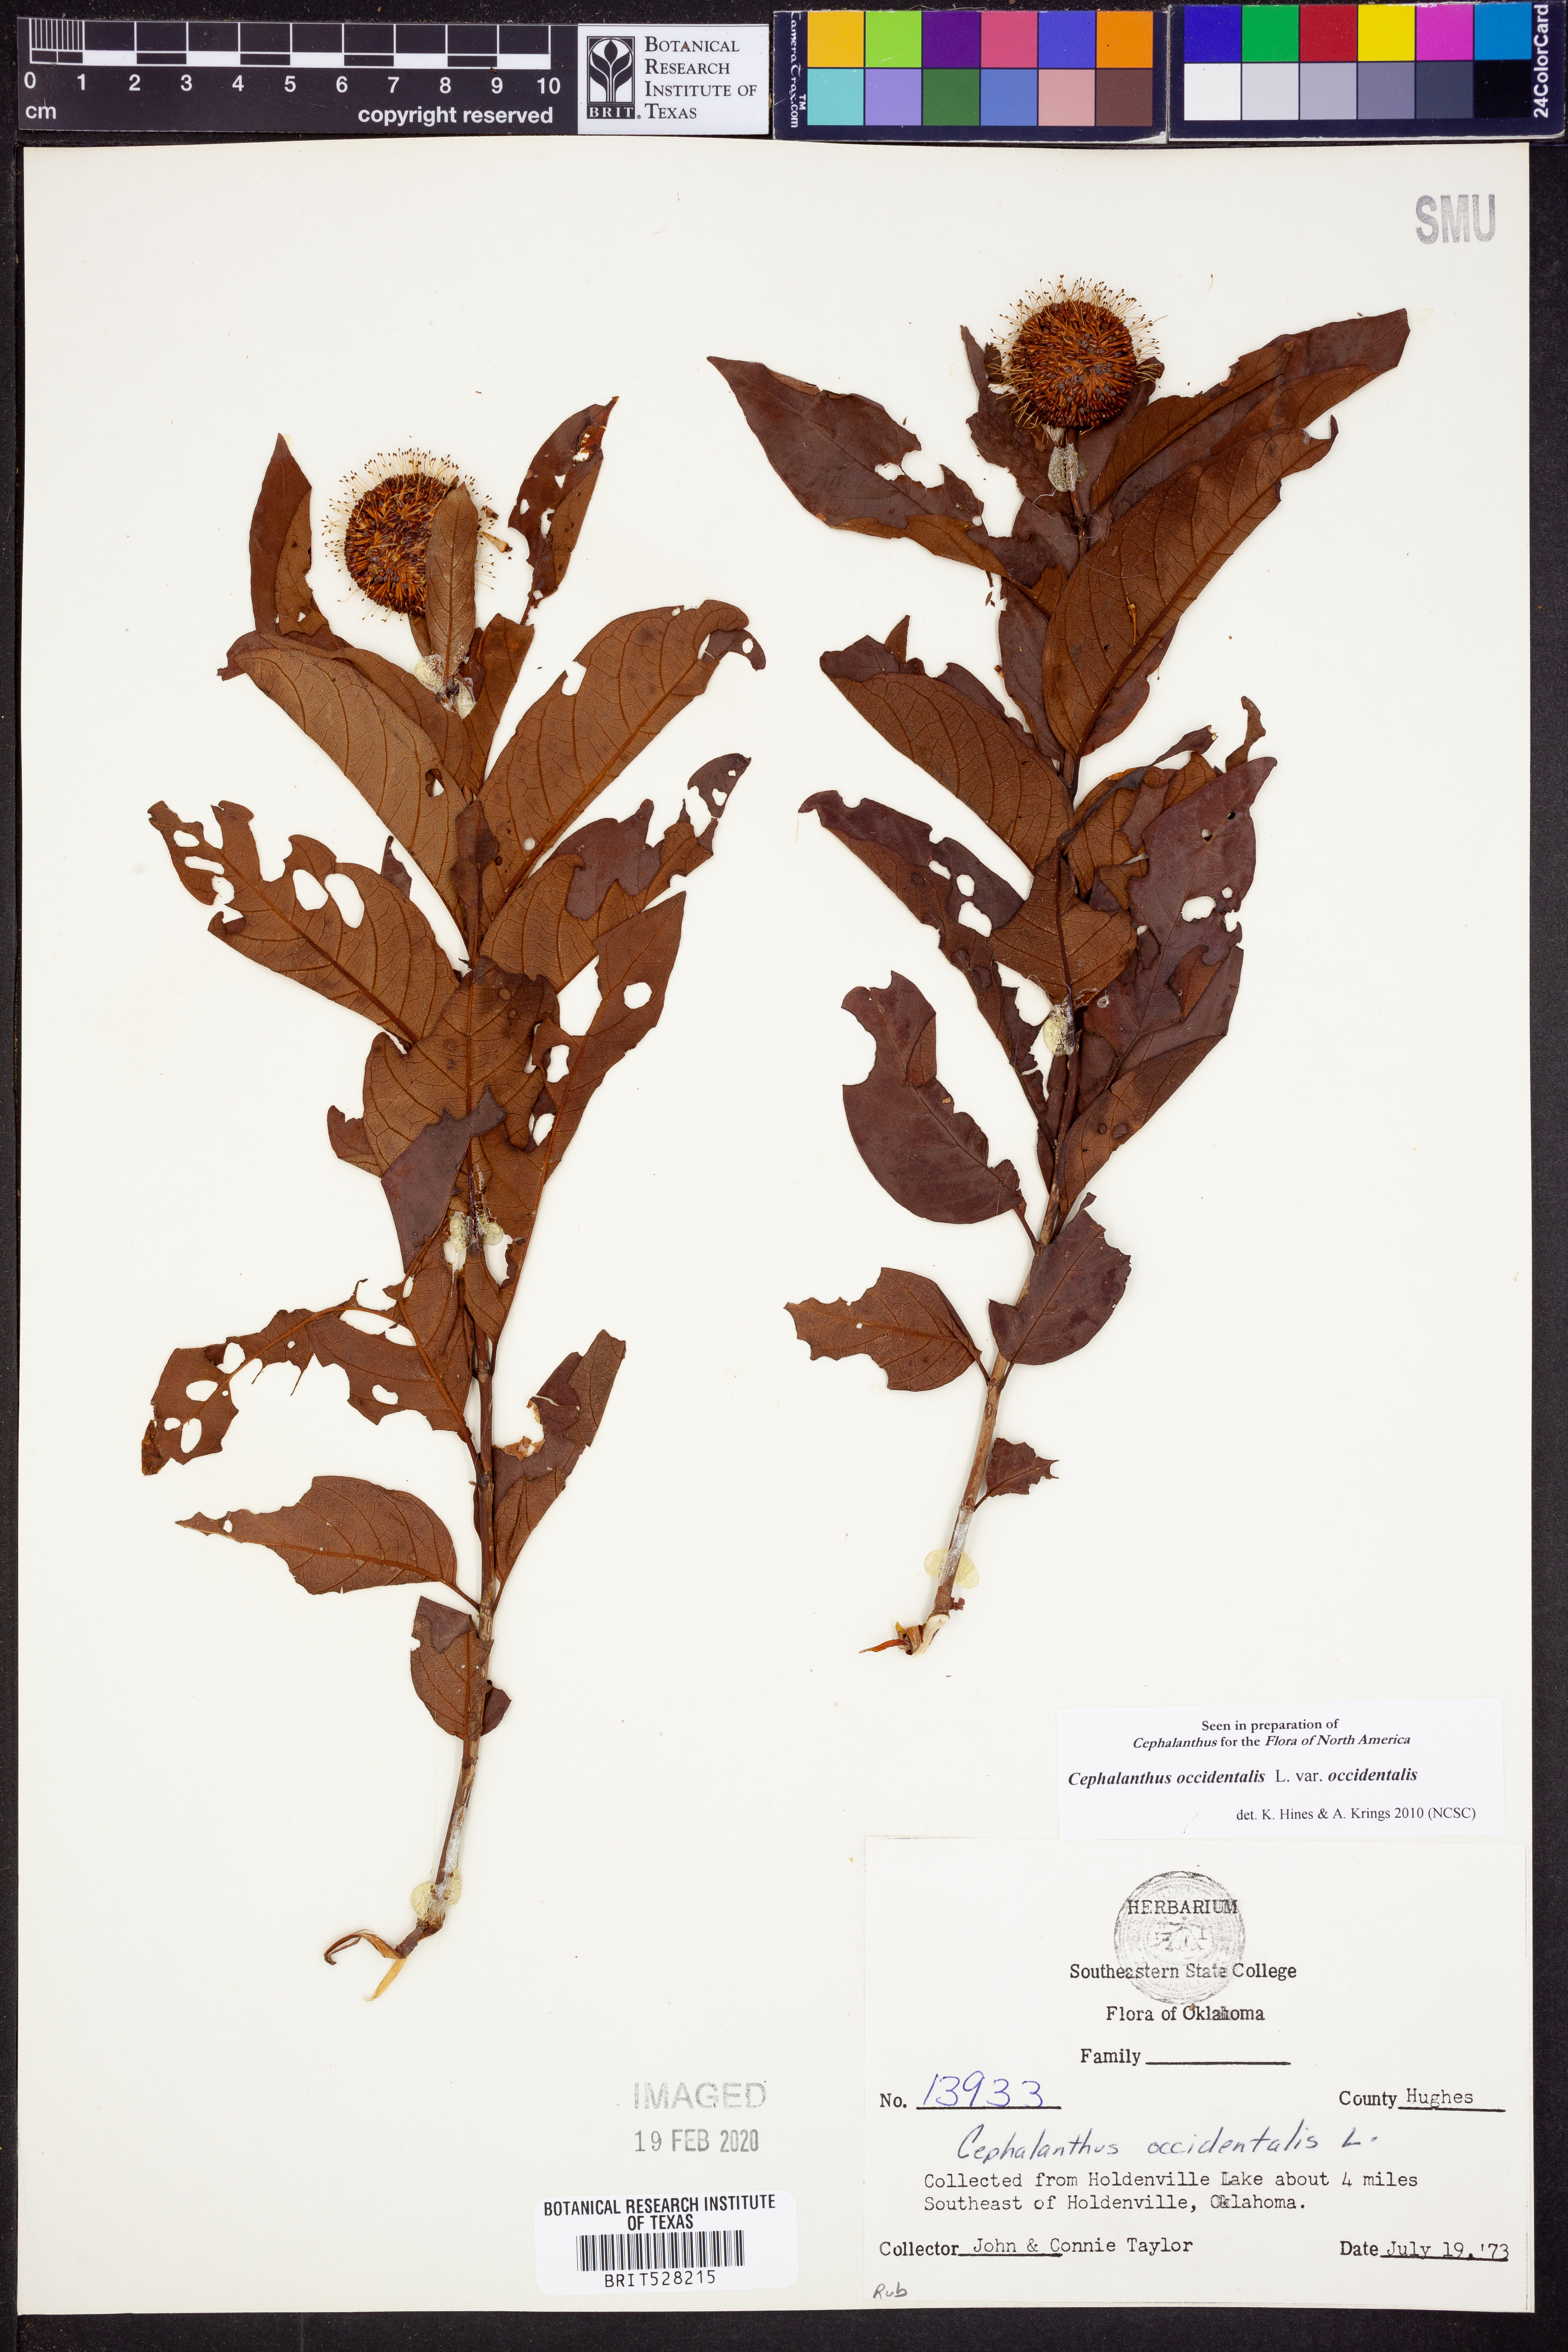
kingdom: Plantae
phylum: Tracheophyta
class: Magnoliopsida
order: Gentianales
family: Rubiaceae
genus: Cephalanthus
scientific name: Cephalanthus occidentalis
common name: Button-willow
